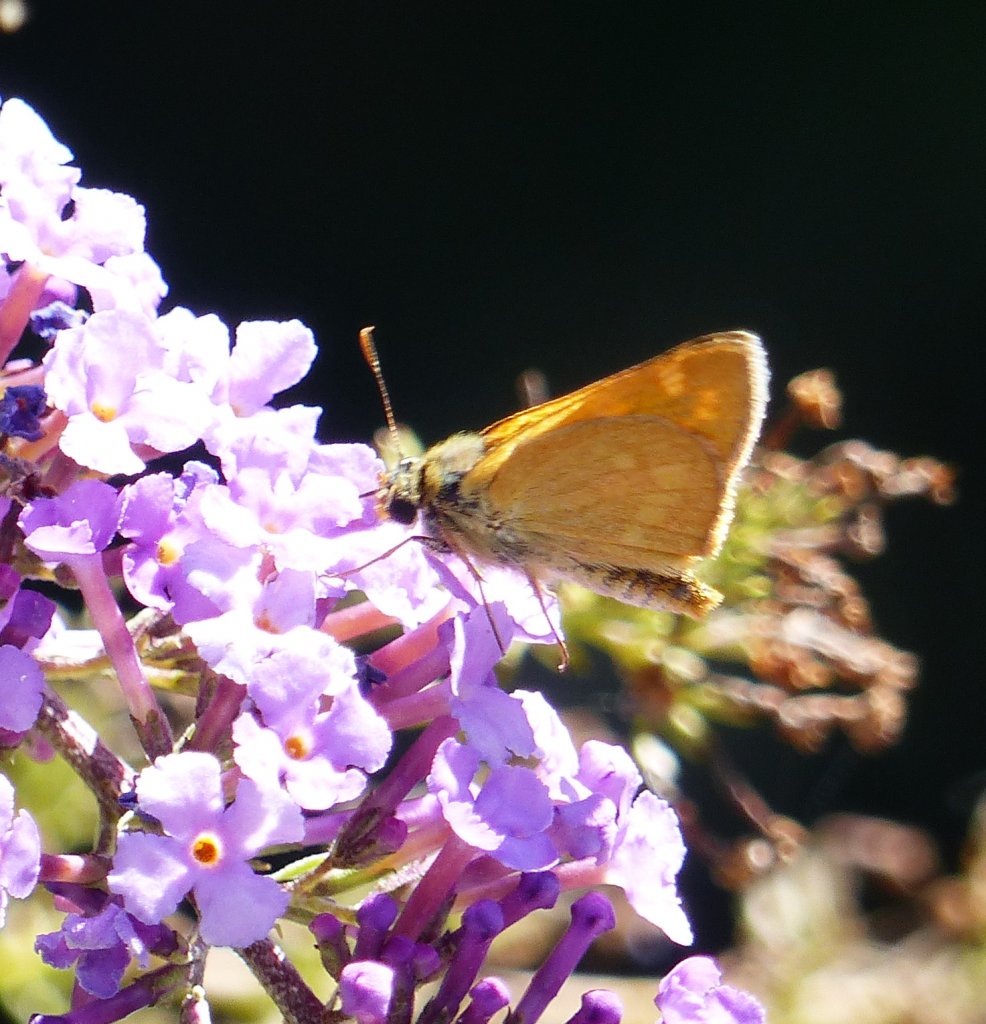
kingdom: Animalia
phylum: Arthropoda
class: Insecta
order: Lepidoptera
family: Hesperiidae
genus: Ochlodes
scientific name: Ochlodes sylvanoides
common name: Woodland Skipper
